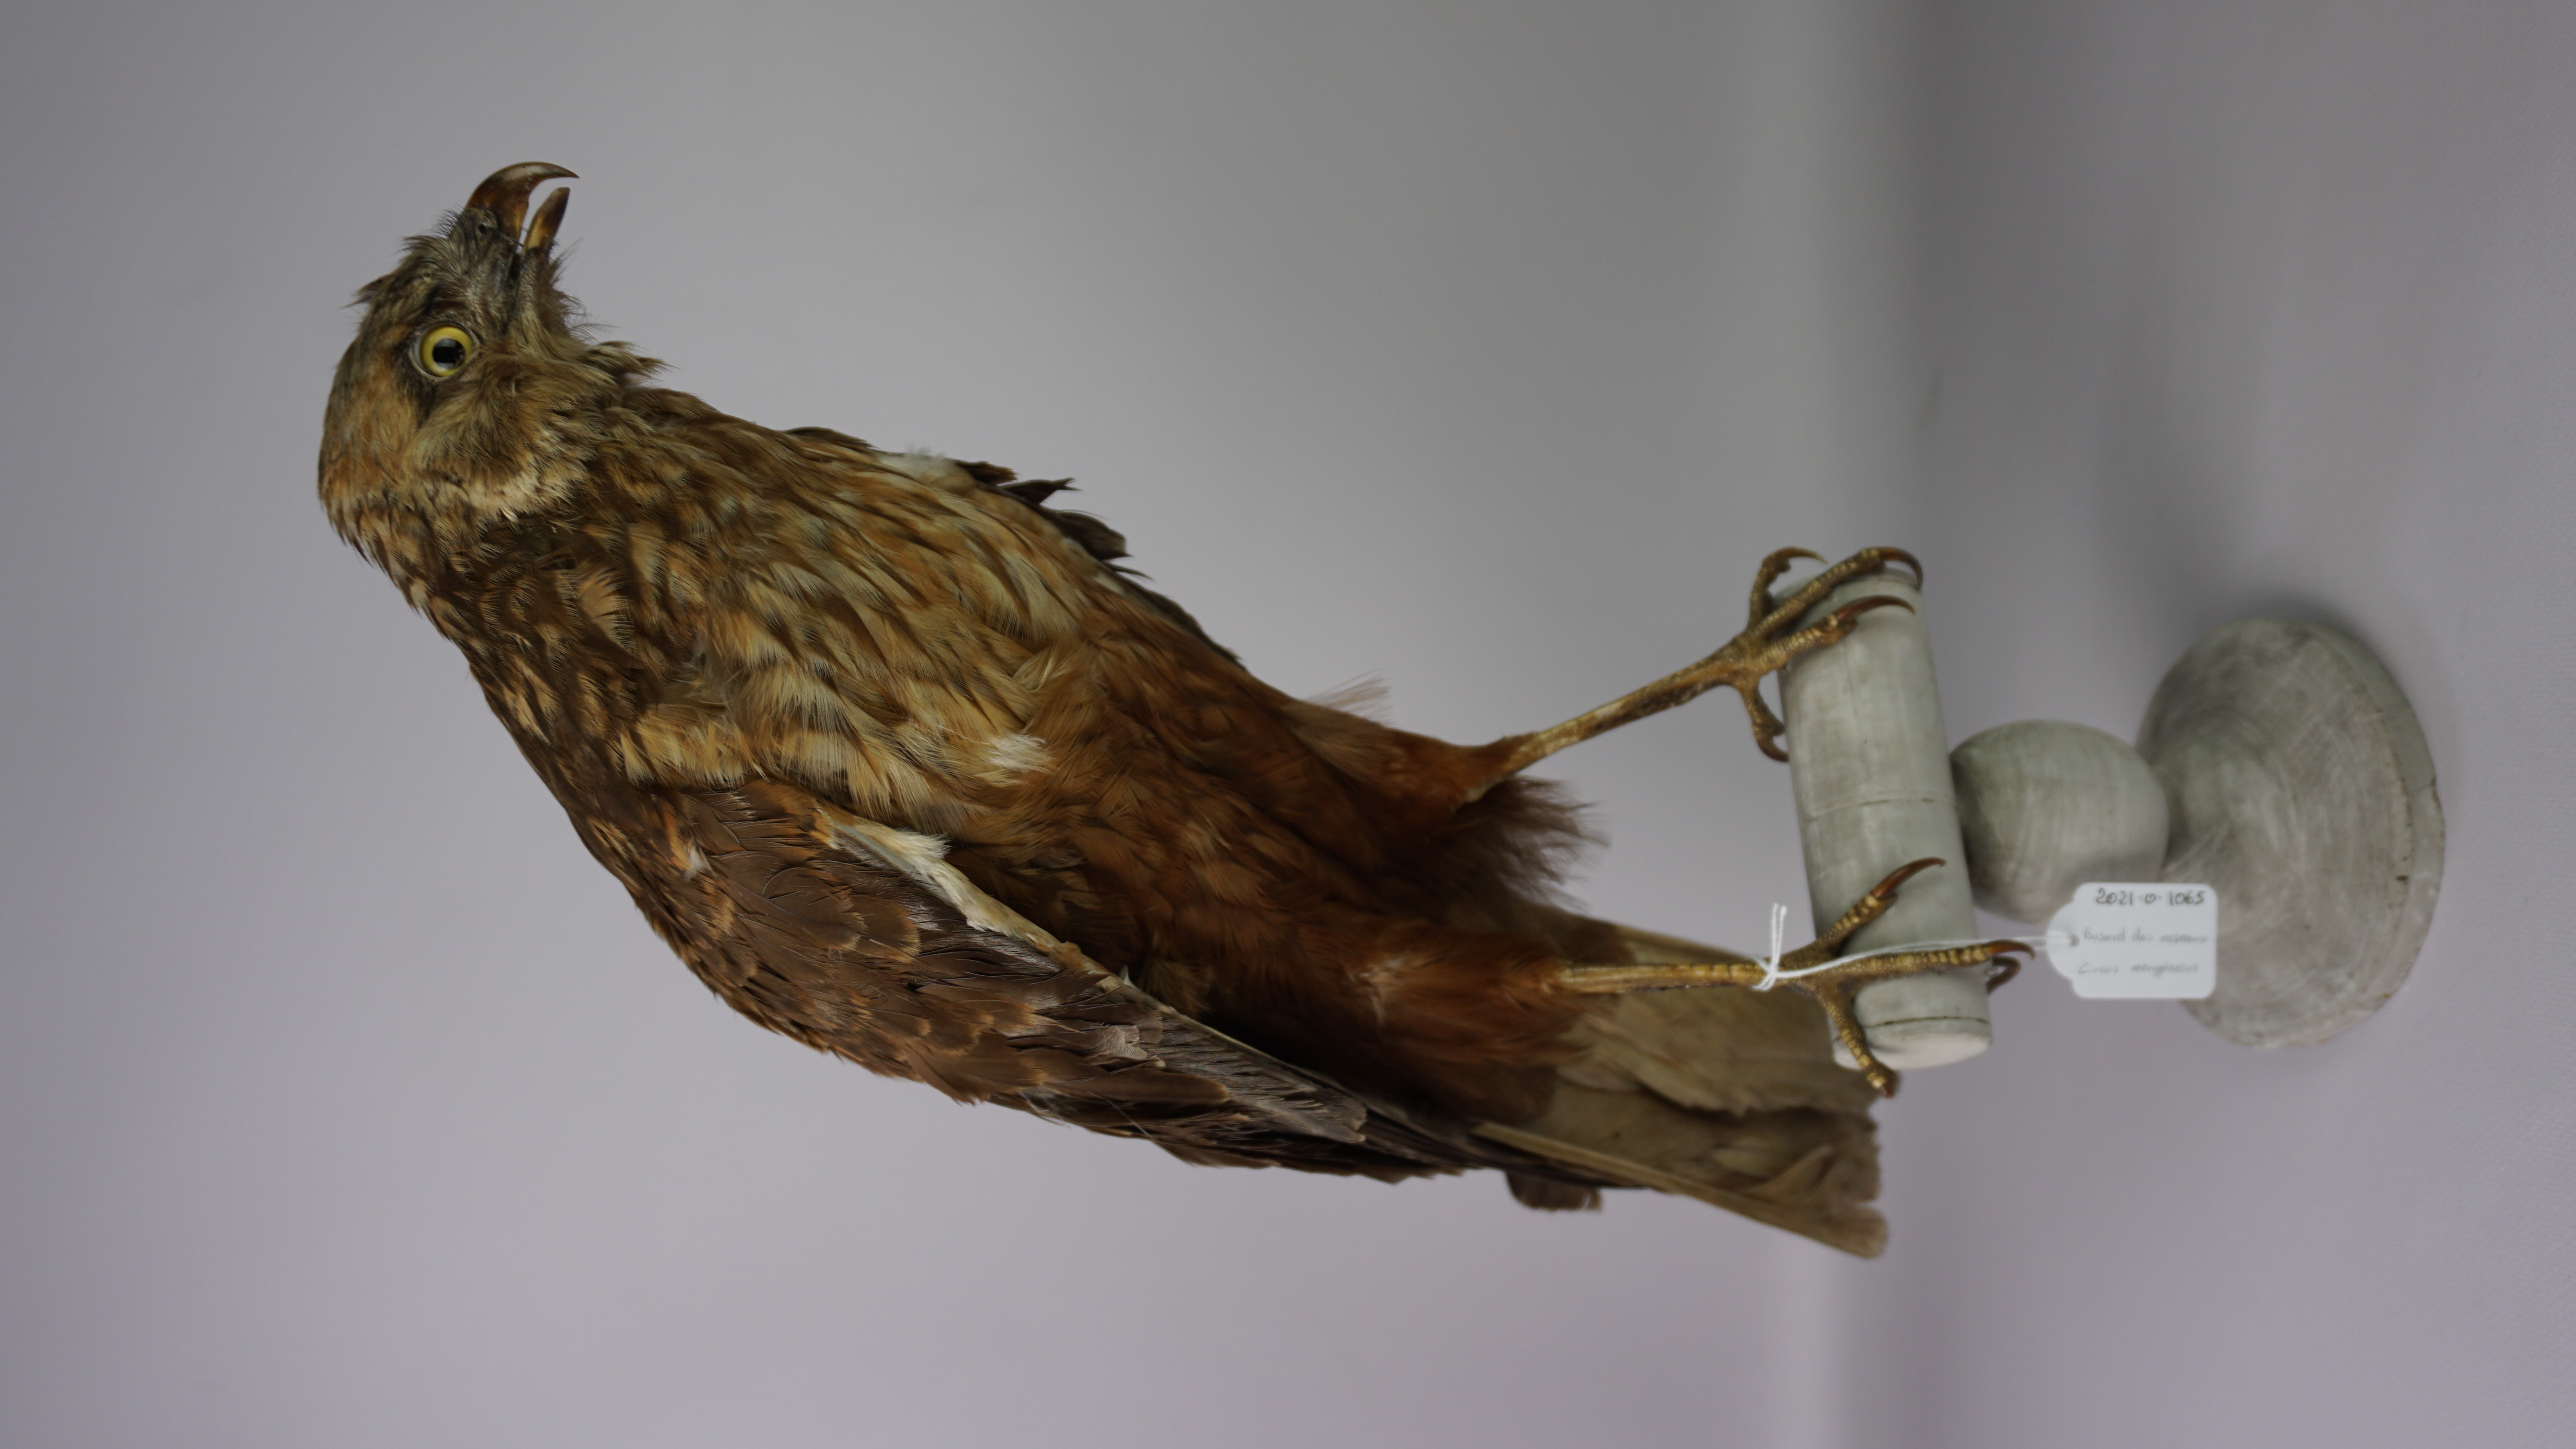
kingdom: Animalia
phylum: Chordata
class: Aves
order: Accipitriformes
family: Accipitridae
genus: Circus
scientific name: Circus aeruginosus
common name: Western marsh harrier
